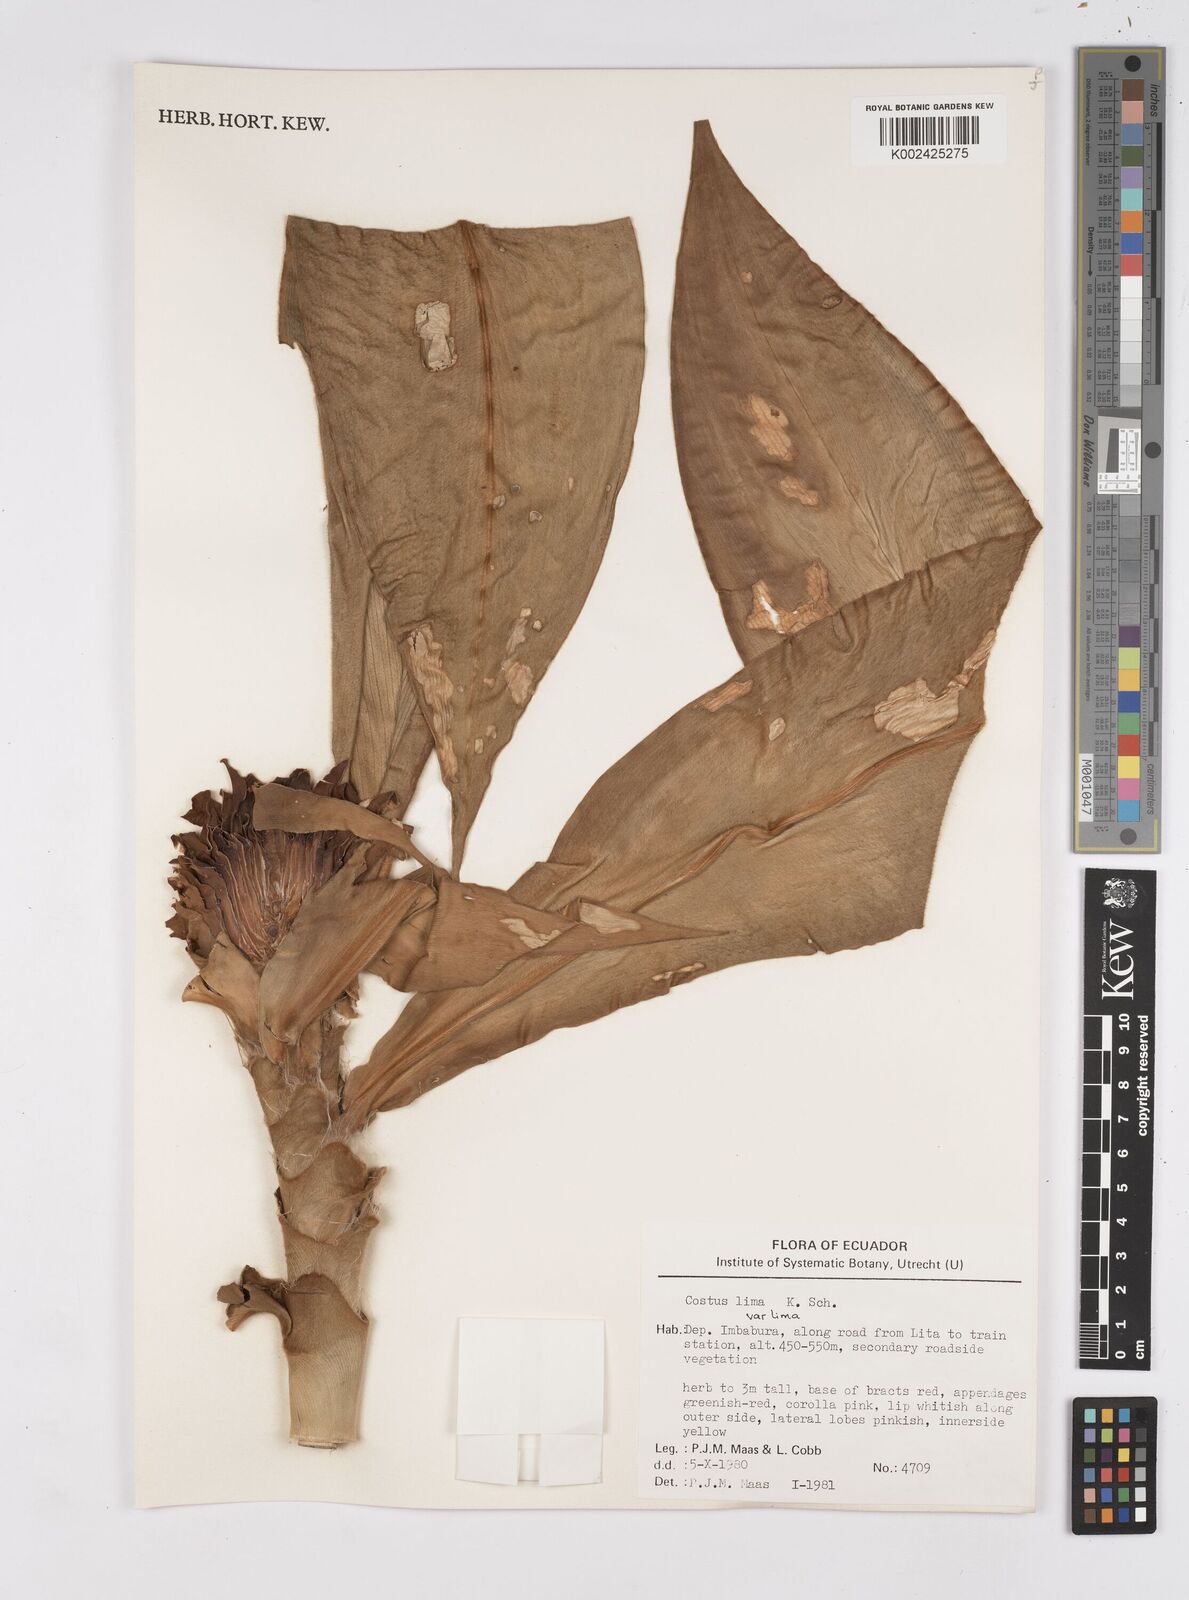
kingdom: Plantae
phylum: Tracheophyta
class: Liliopsida
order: Zingiberales
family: Costaceae
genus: Costus
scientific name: Costus lima
